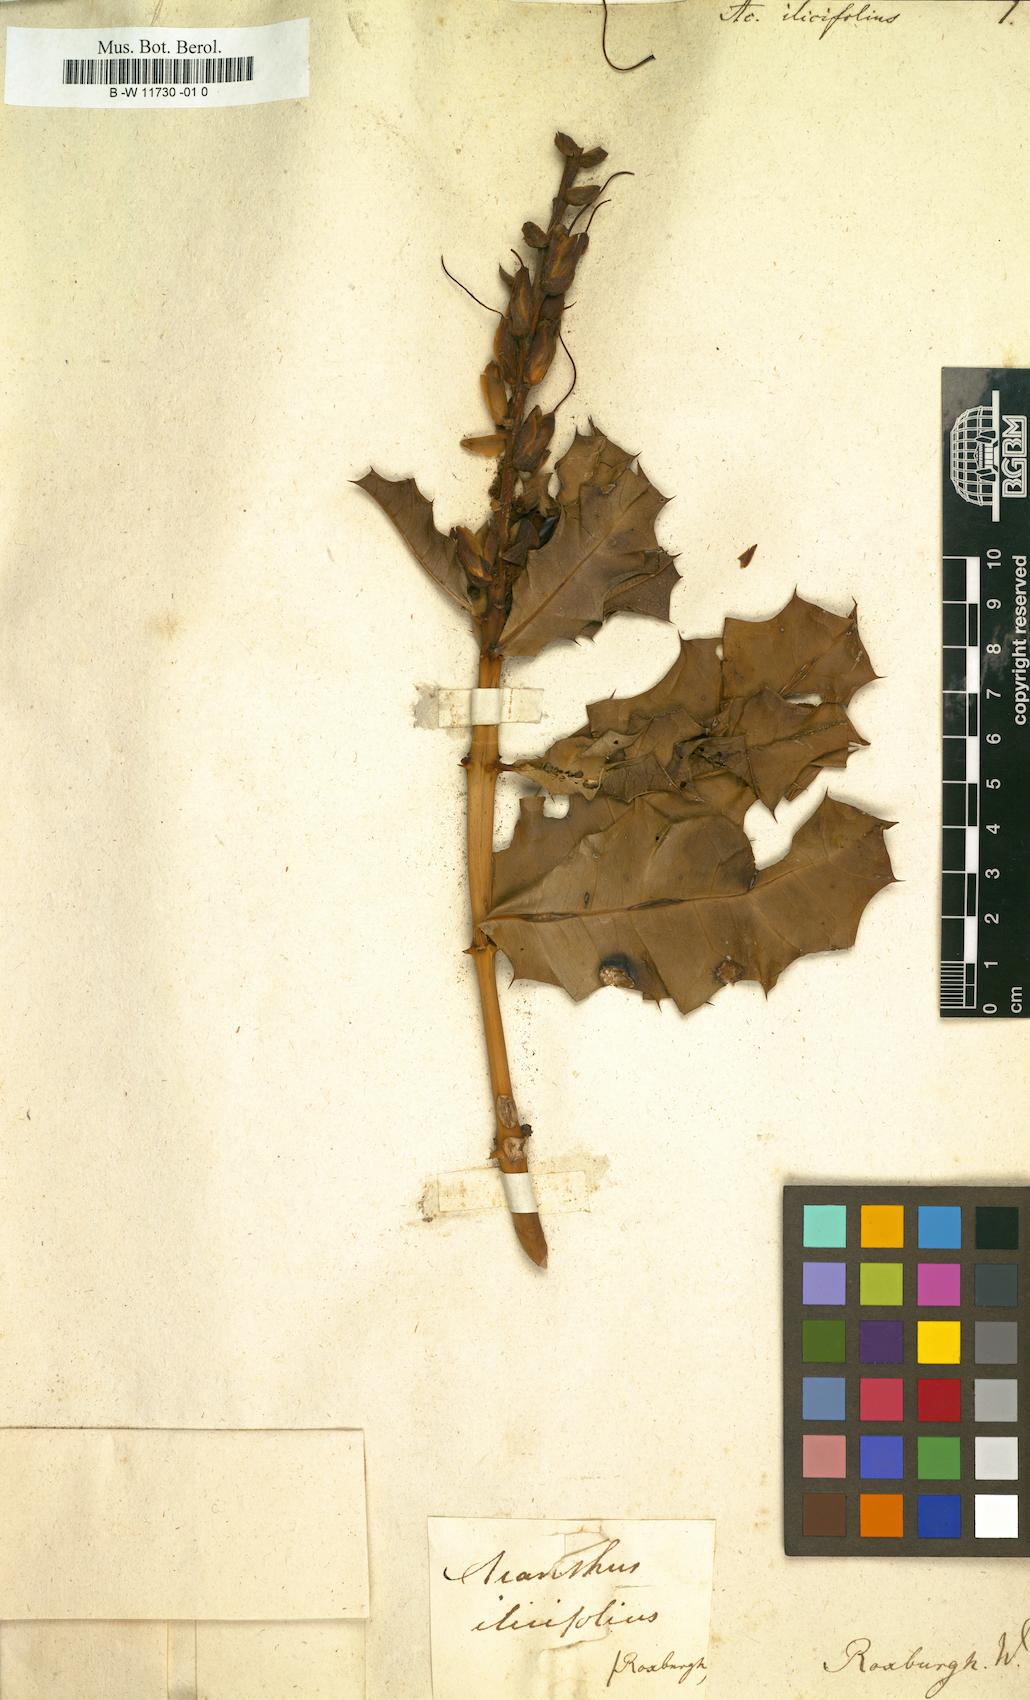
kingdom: Plantae
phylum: Tracheophyta
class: Magnoliopsida
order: Lamiales
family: Acanthaceae
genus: Acanthus
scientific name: Acanthus ilicifolius
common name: Holy mangrove
